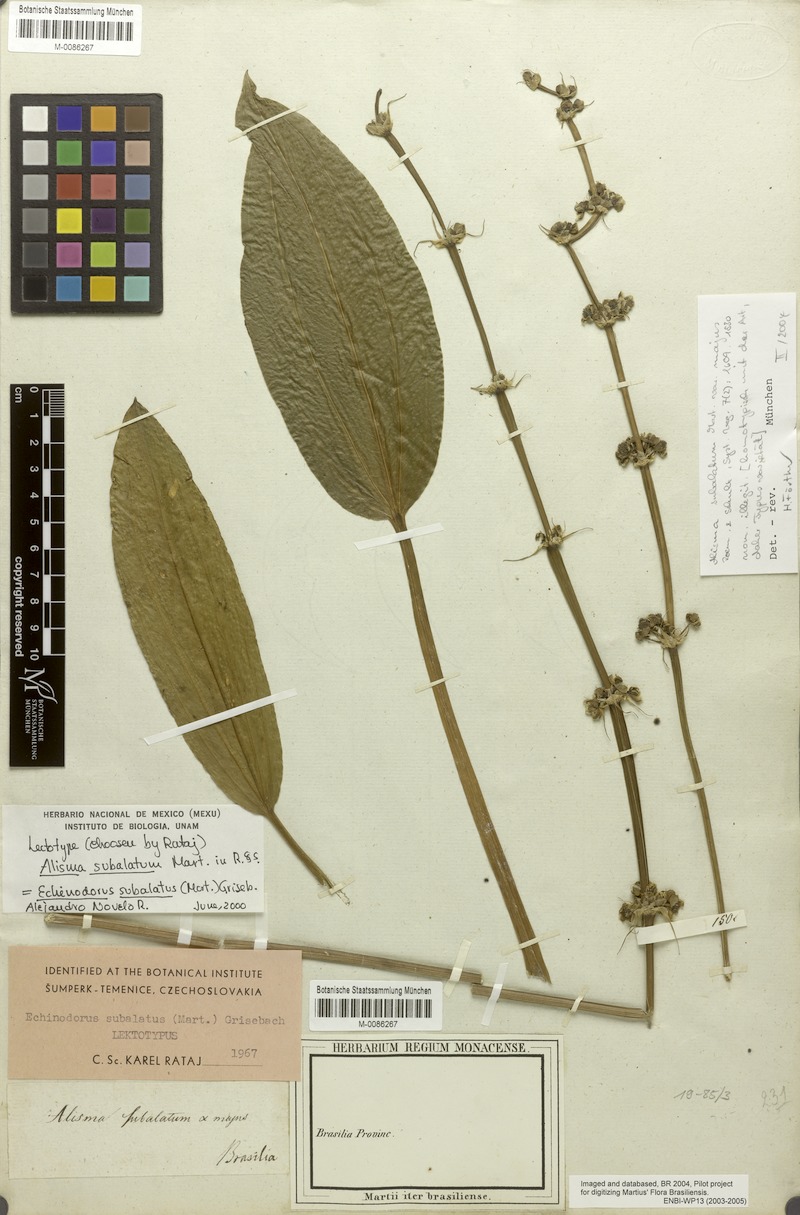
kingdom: Plantae
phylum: Tracheophyta
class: Liliopsida
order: Alismatales
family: Alismataceae
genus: Aquarius
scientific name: Aquarius subulatus
